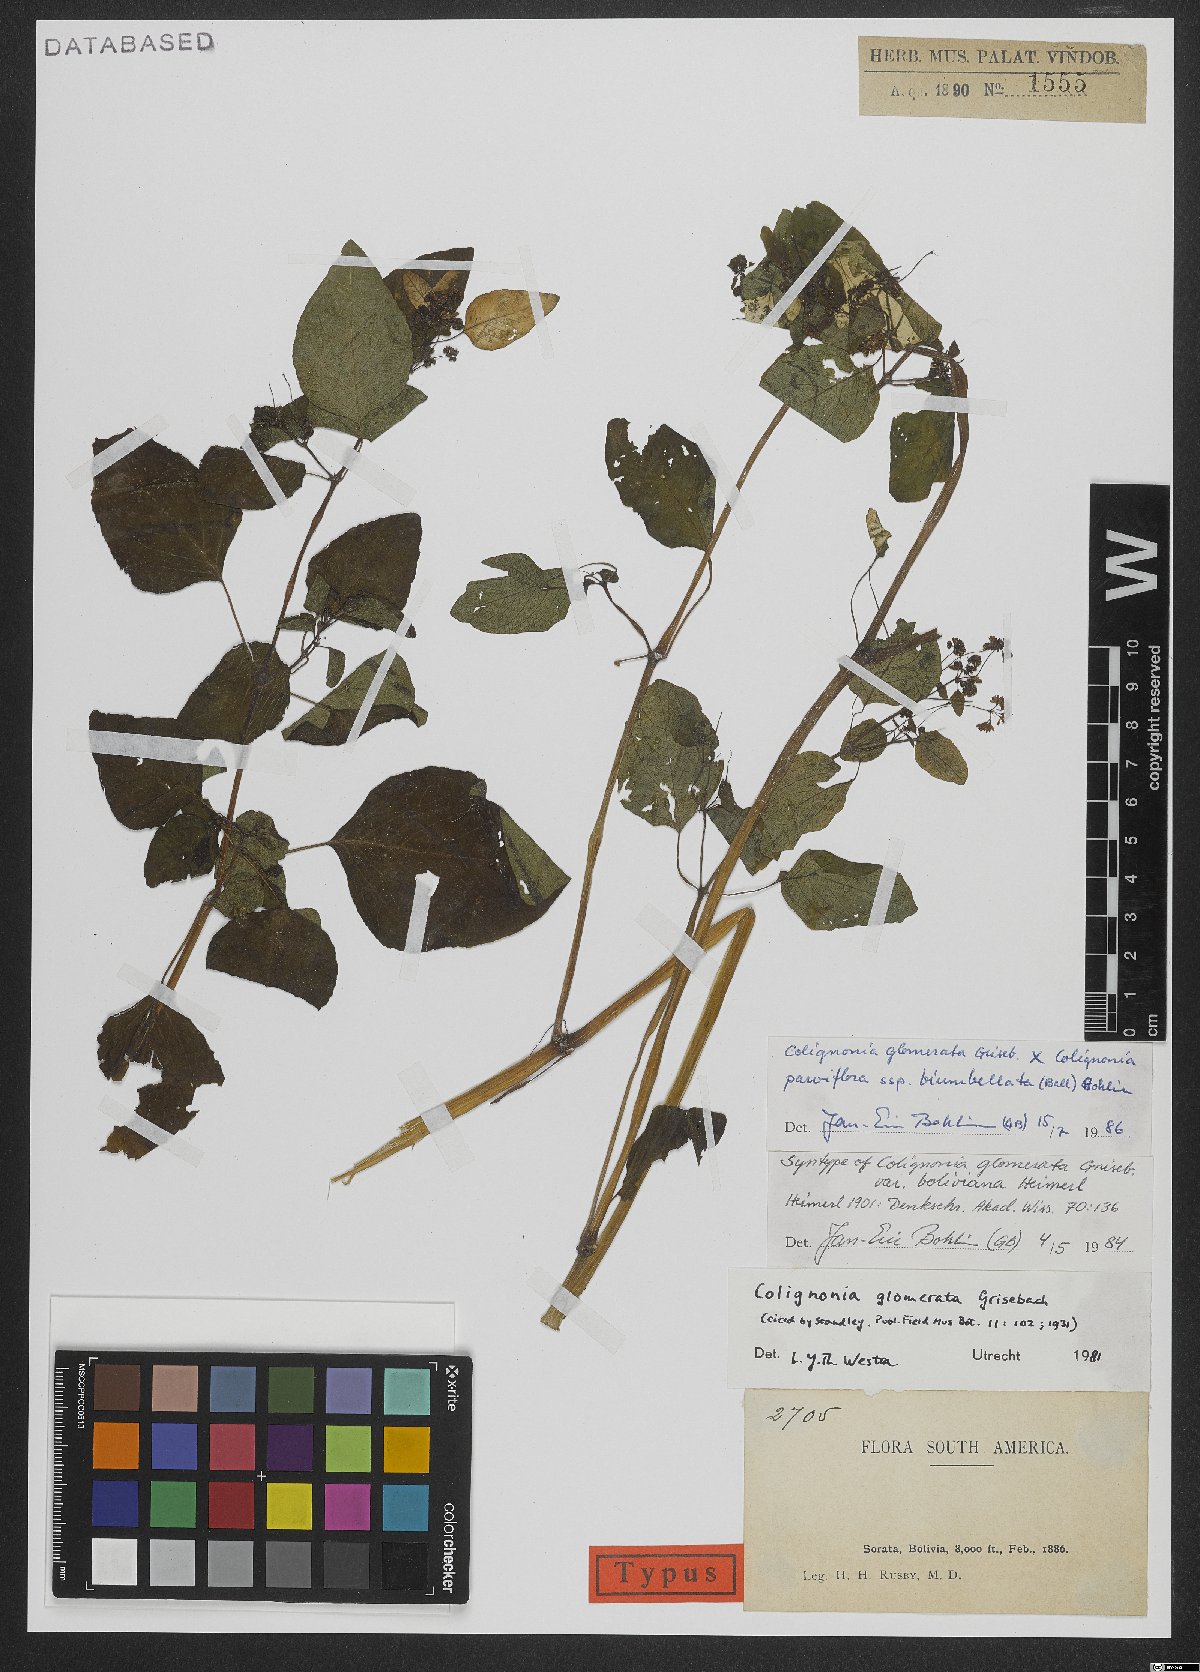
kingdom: Plantae
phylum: Tracheophyta
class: Magnoliopsida
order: Caryophyllales
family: Nyctaginaceae
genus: Colignonia
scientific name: Colignonia glomerata
